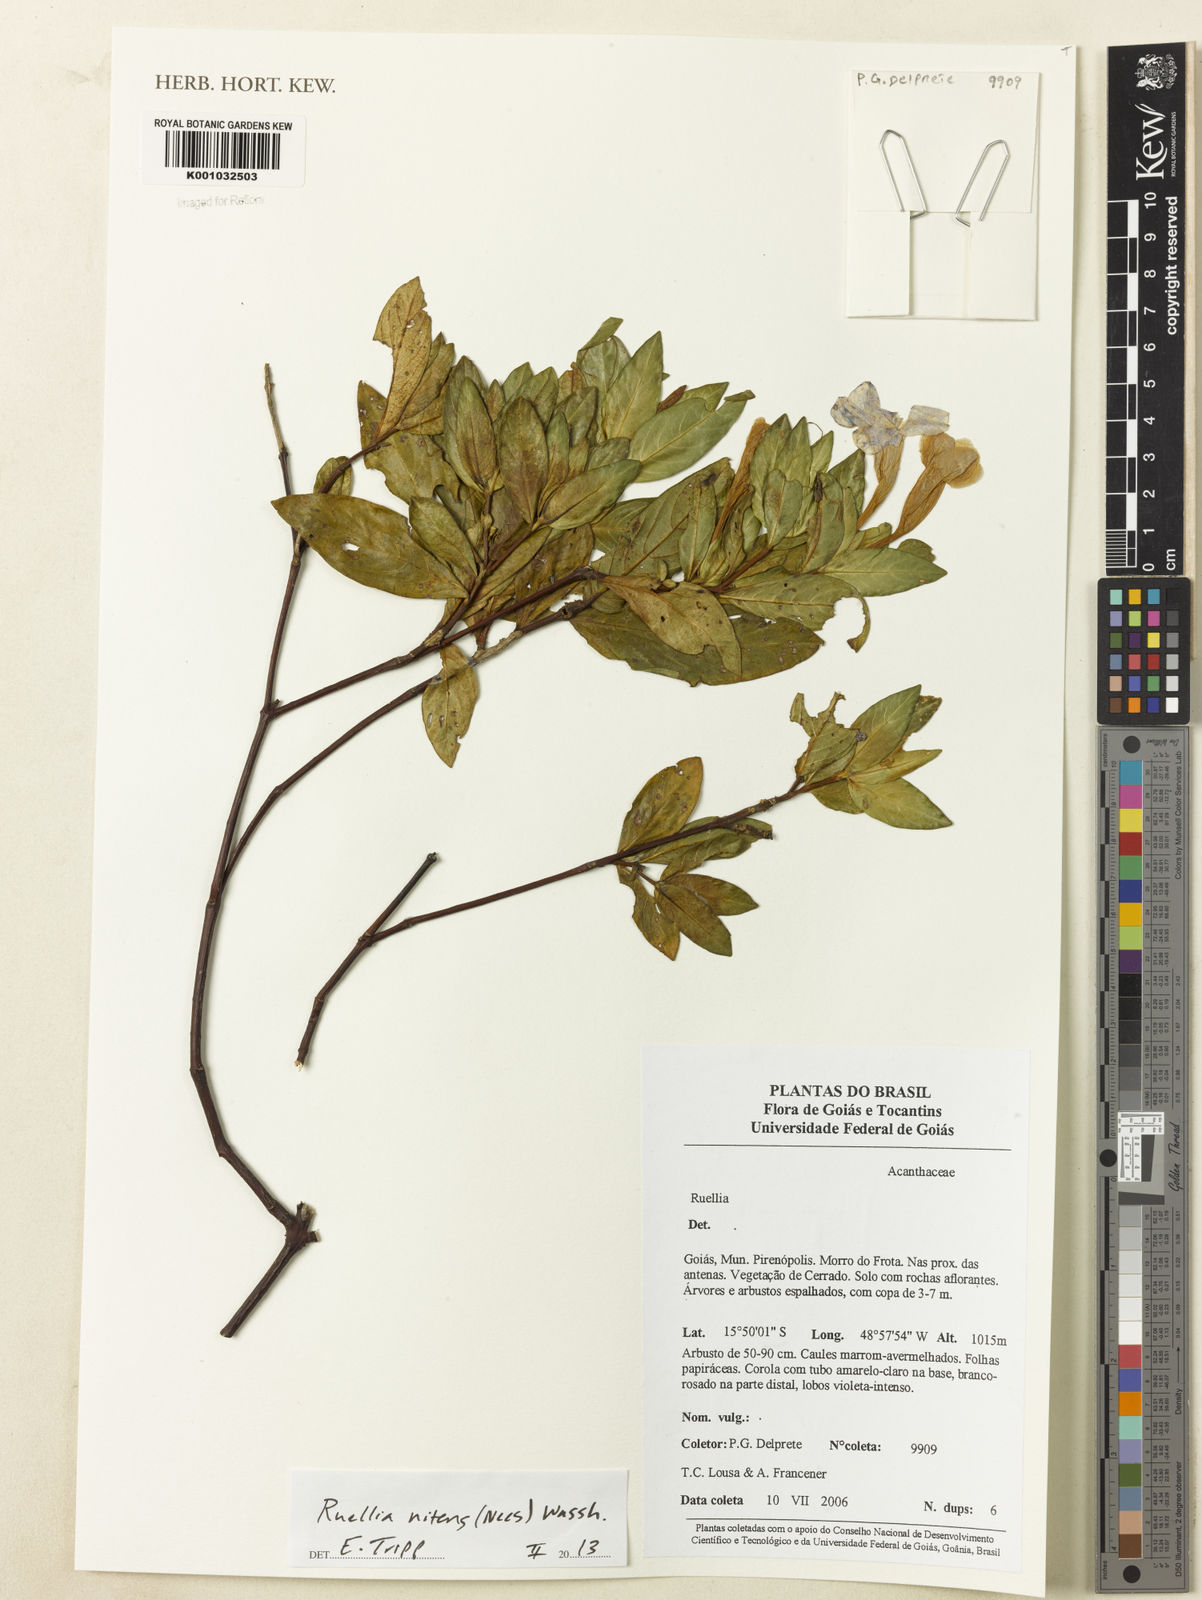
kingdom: Plantae
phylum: Tracheophyta
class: Magnoliopsida
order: Lamiales
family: Acanthaceae
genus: Ruellia
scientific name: Ruellia nitens
